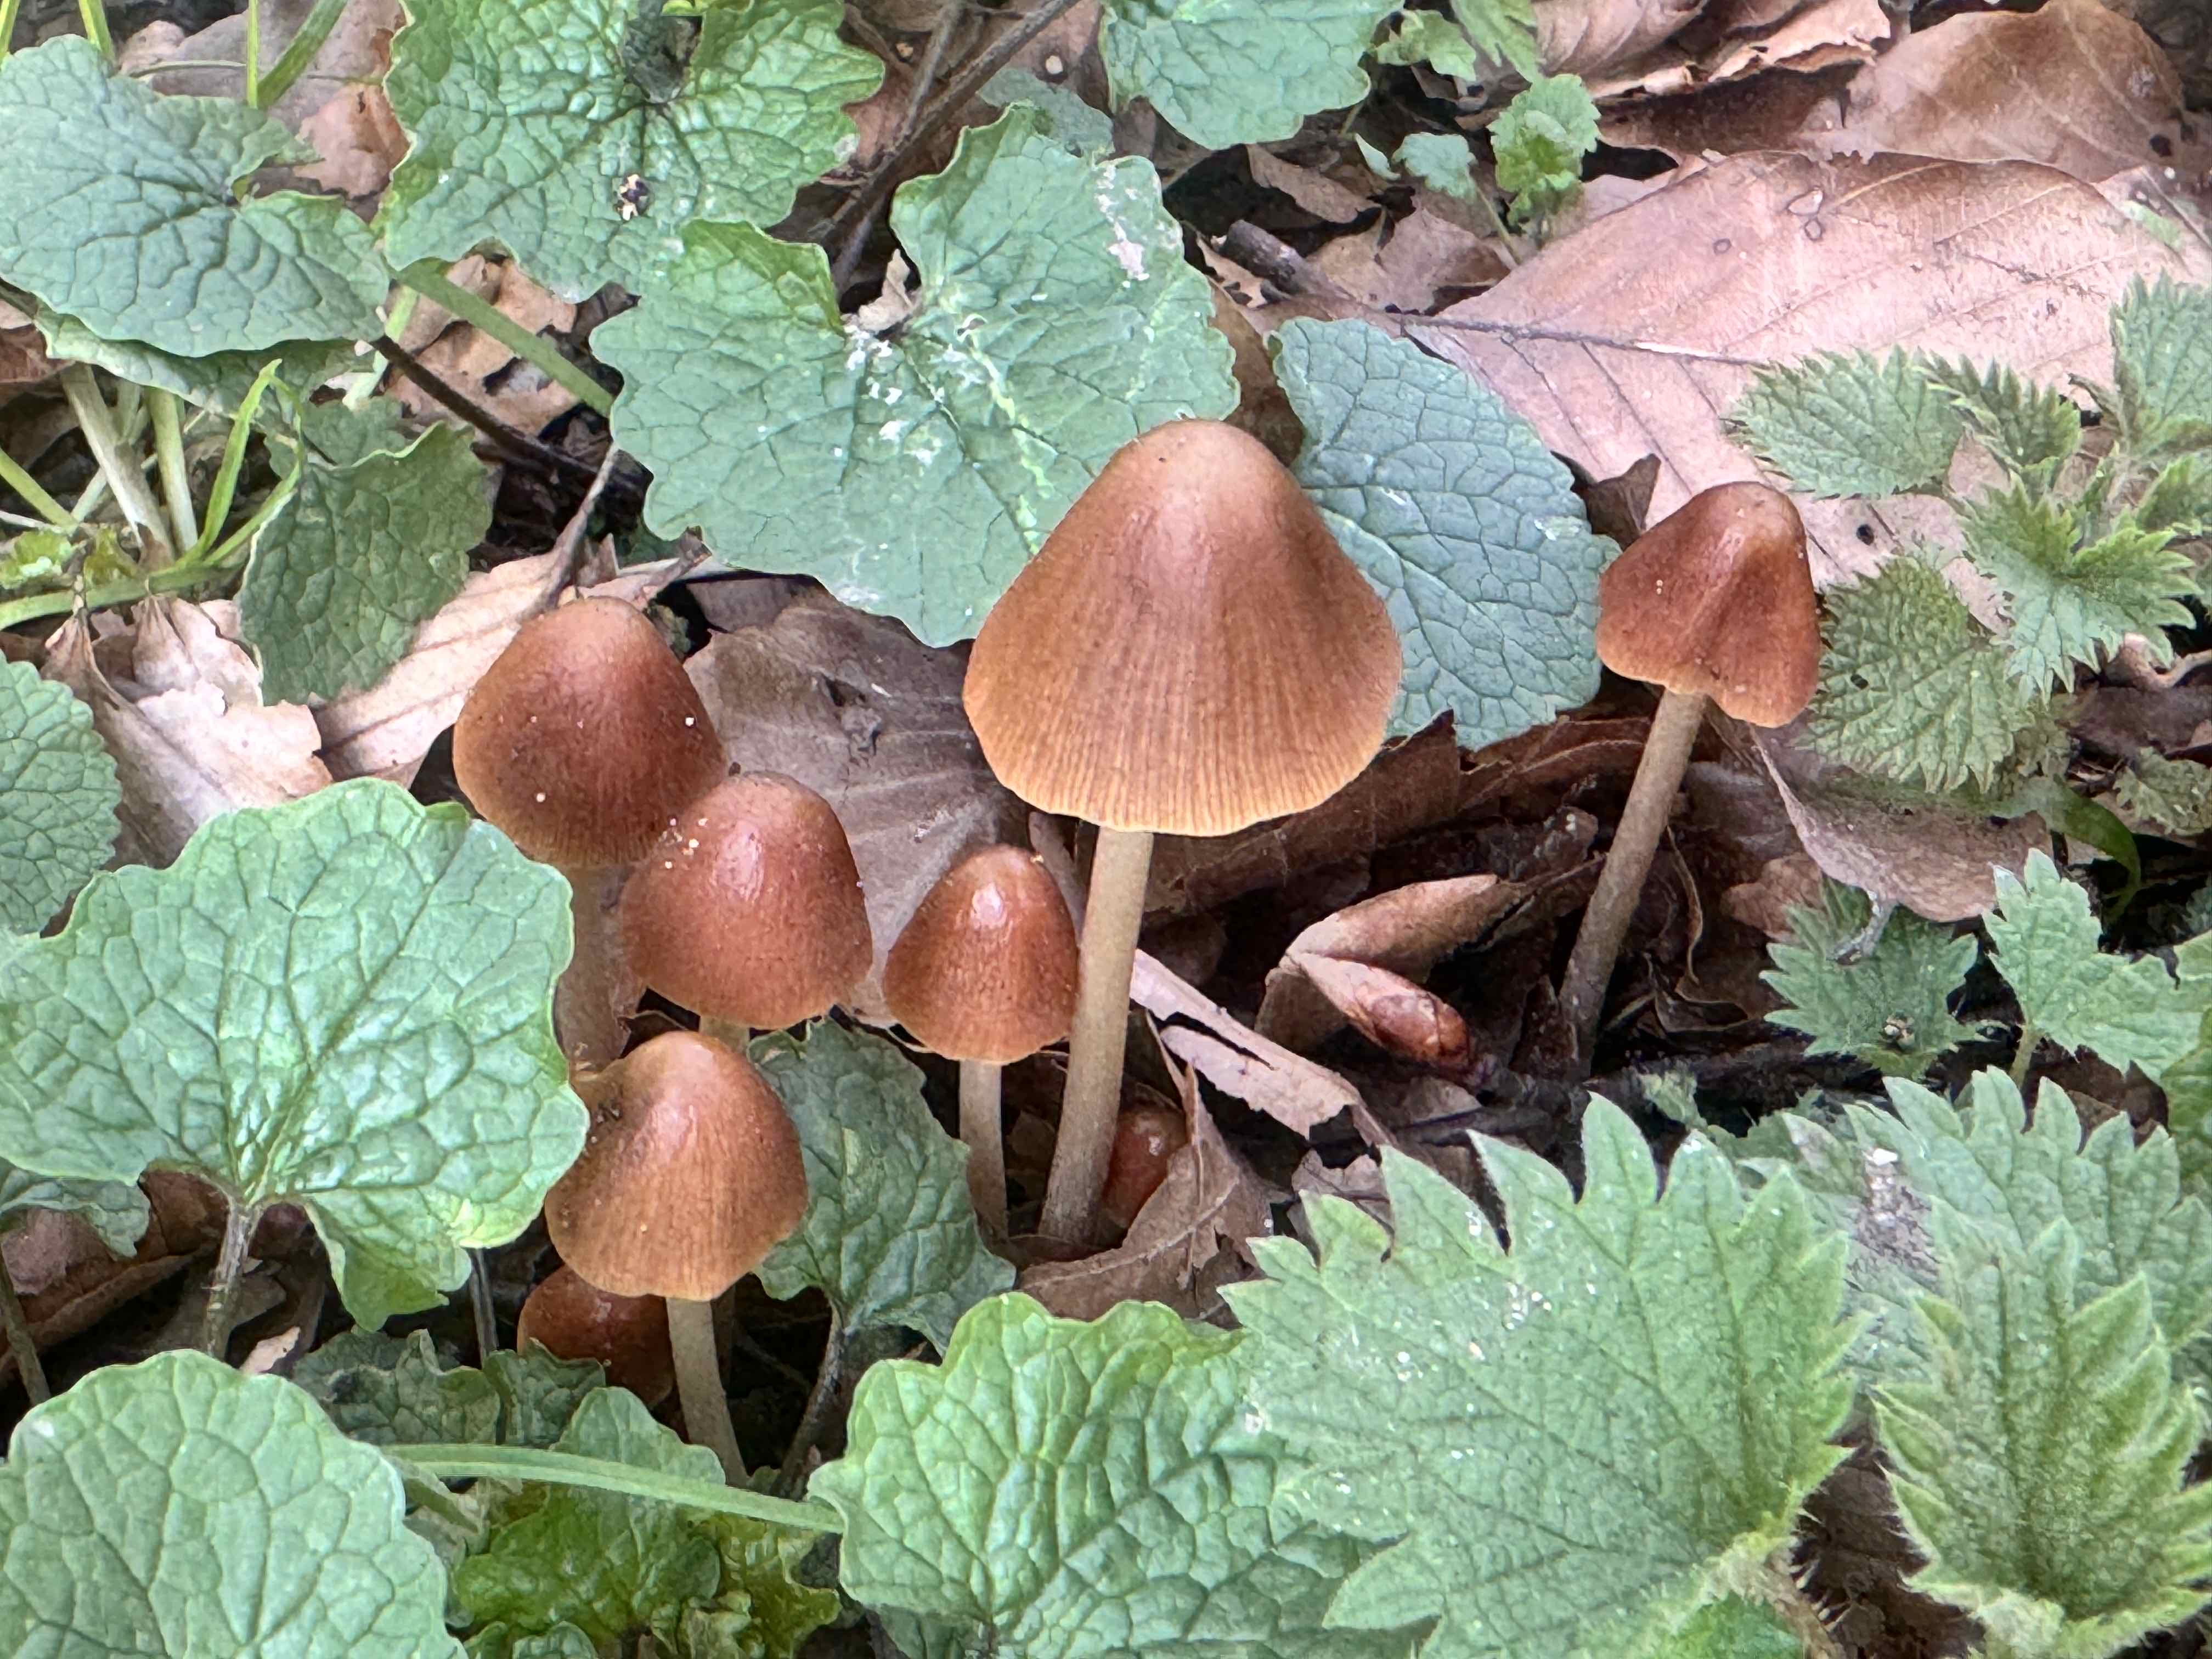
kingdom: Fungi
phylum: Basidiomycota
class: Agaricomycetes
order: Agaricales
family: Psathyrellaceae
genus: Parasola
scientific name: Parasola conopilea
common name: kegle-hjulhat
